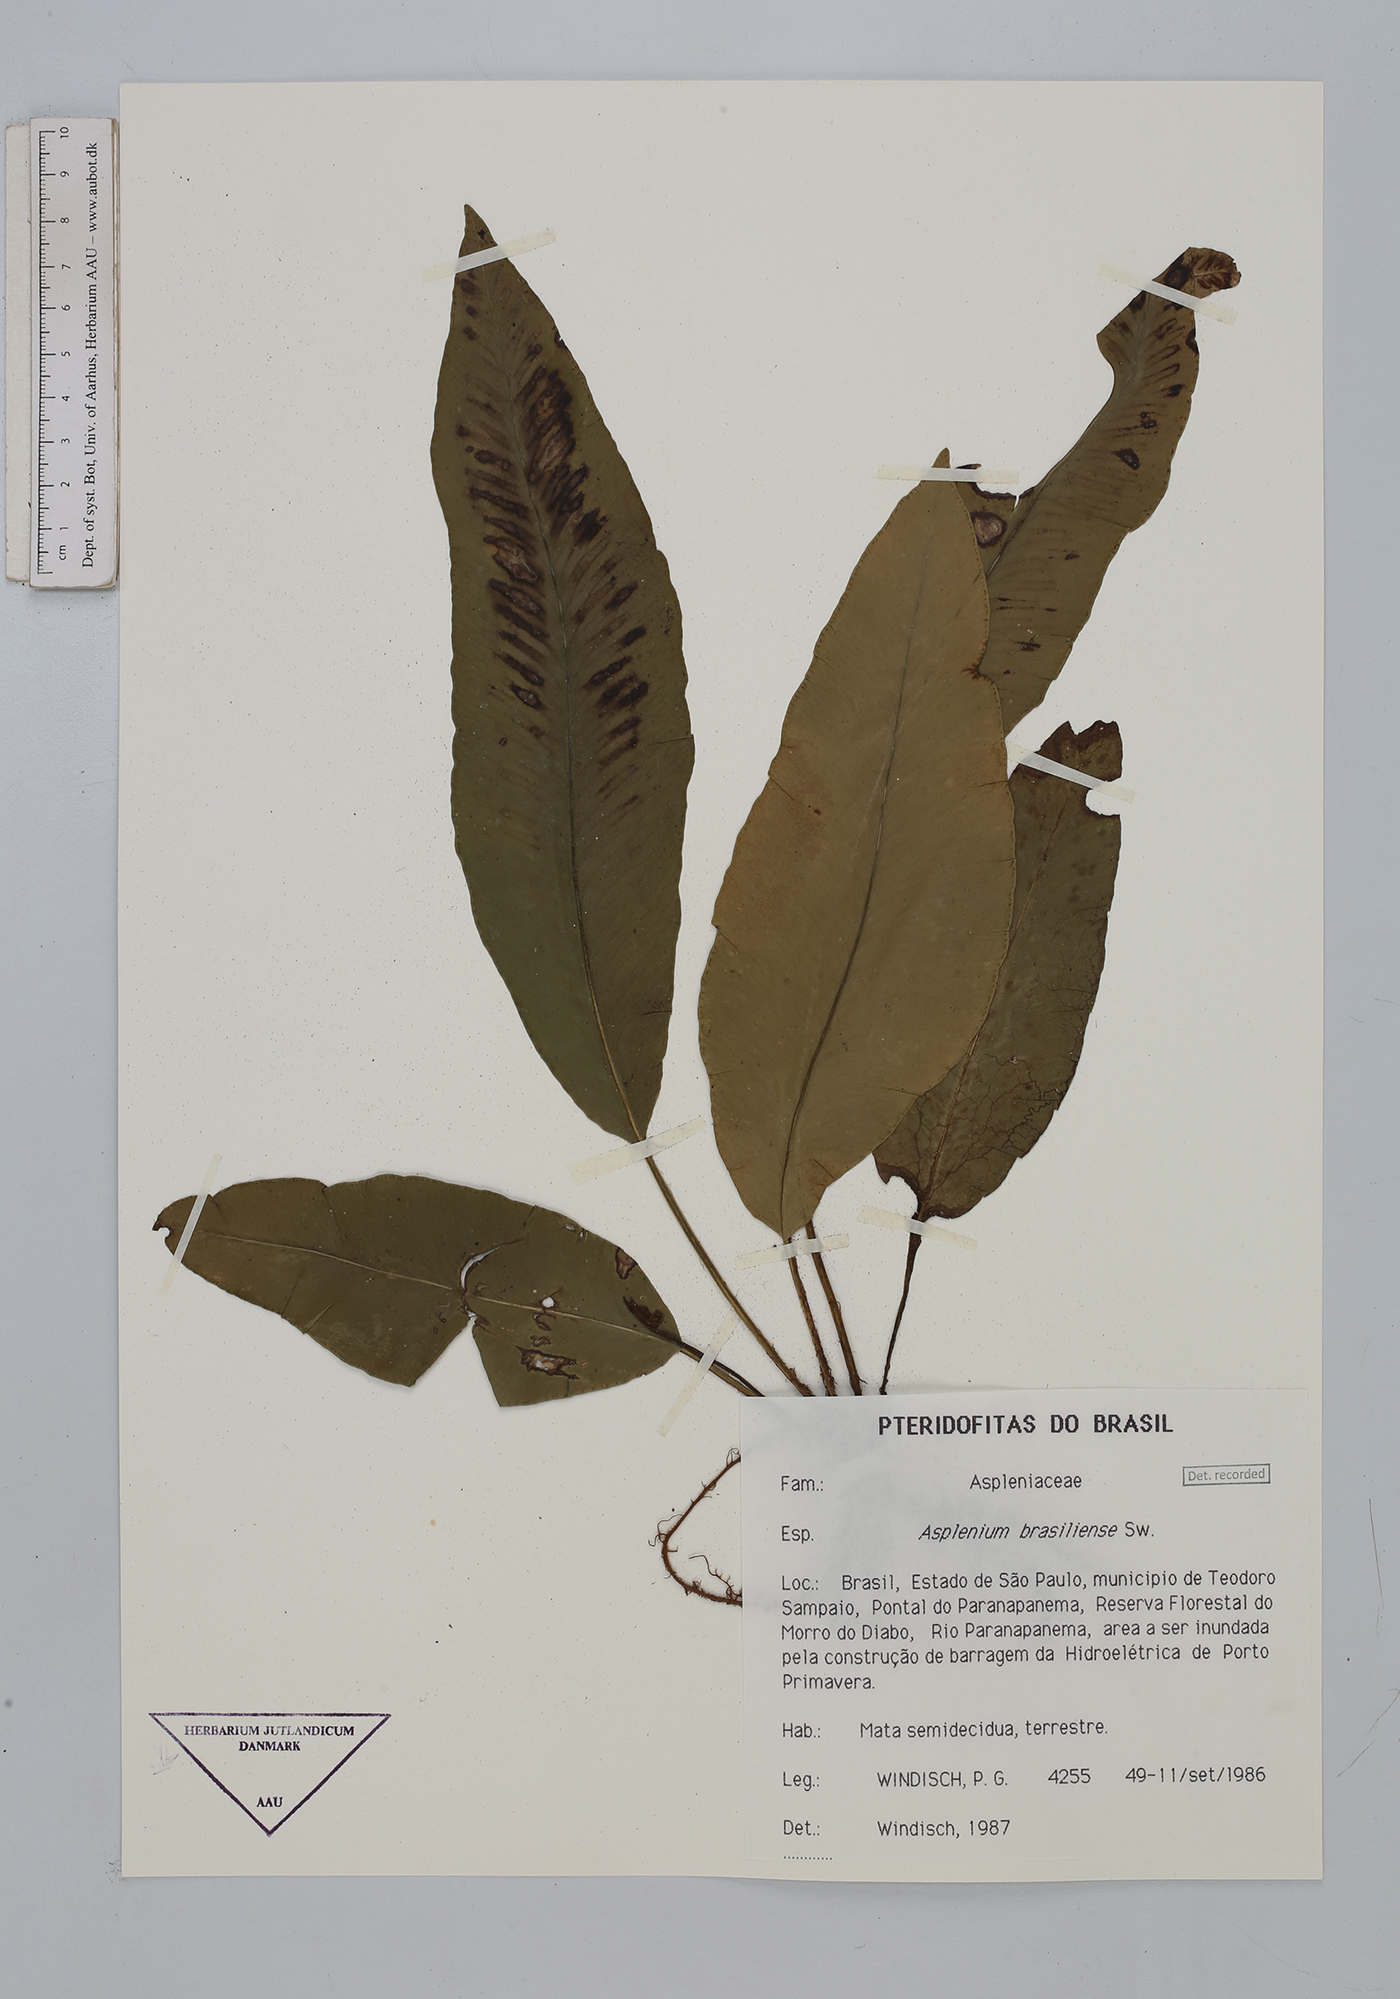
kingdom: Plantae
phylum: Tracheophyta
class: Polypodiopsida
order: Polypodiales
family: Aspleniaceae
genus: Asplenium
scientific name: Asplenium brasiliense
